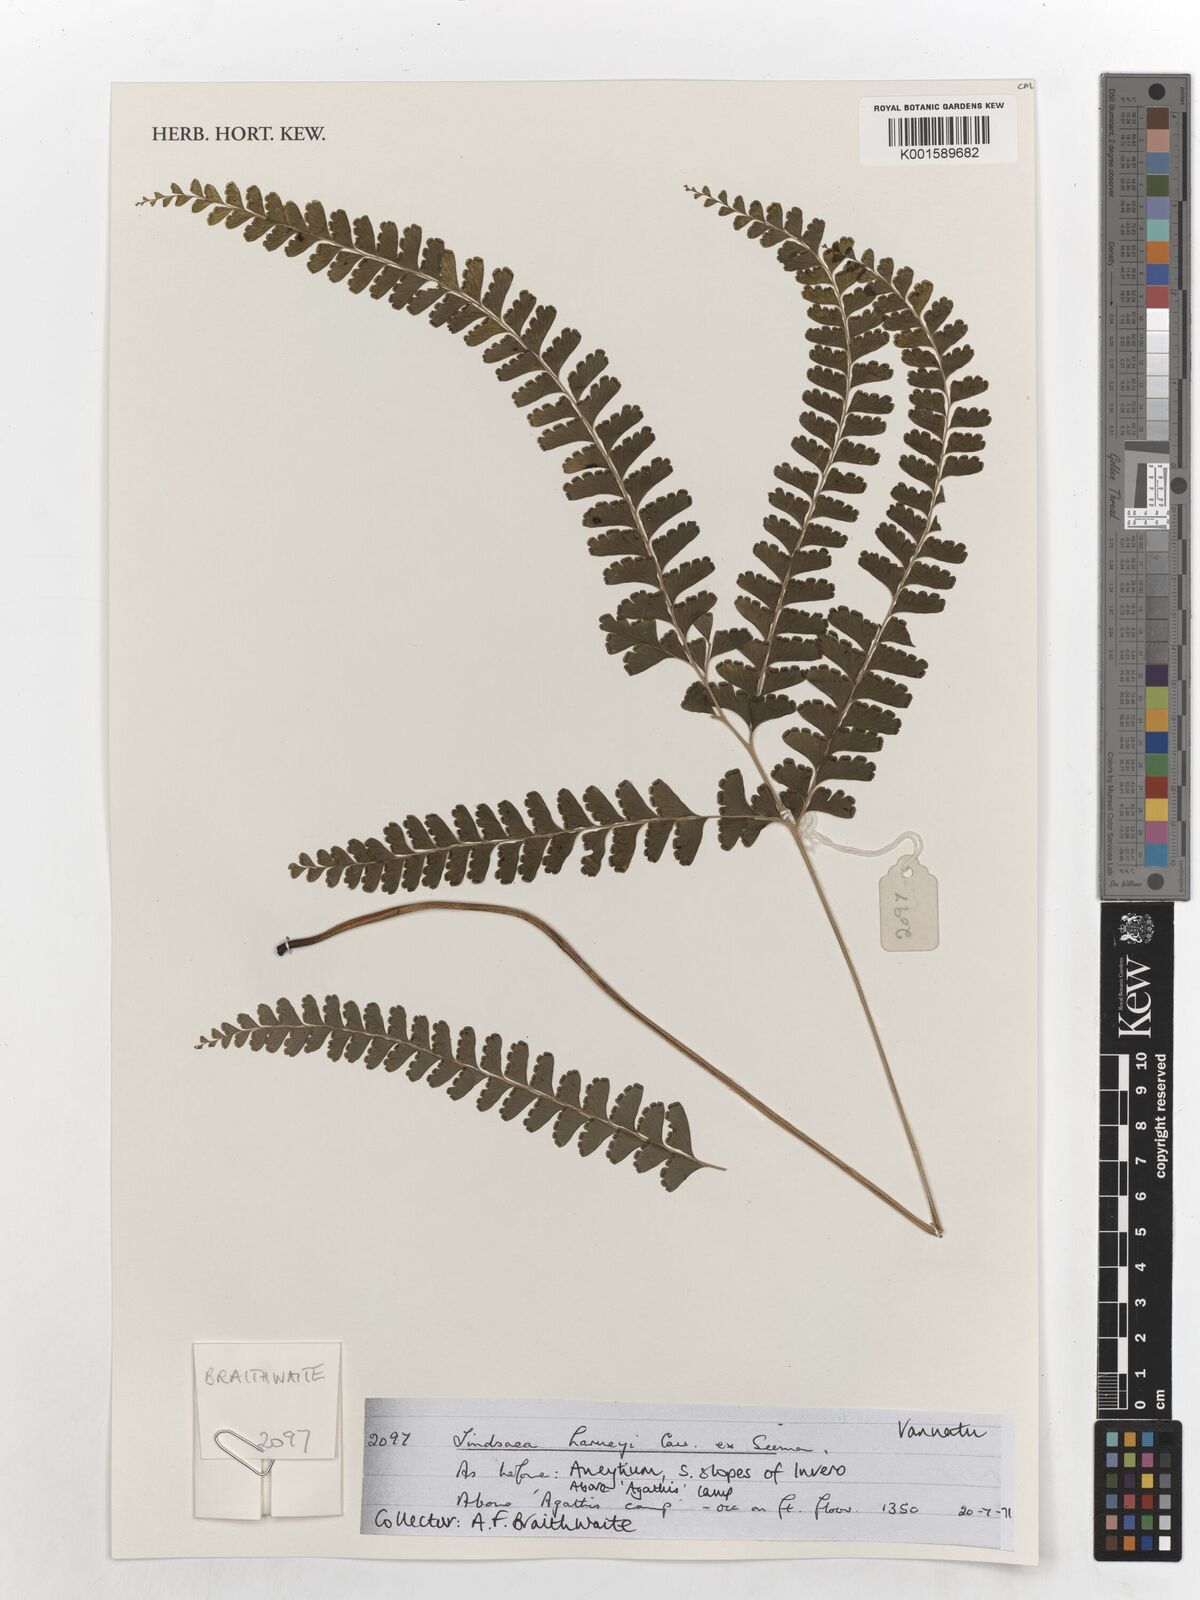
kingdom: Plantae
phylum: Tracheophyta
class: Polypodiopsida
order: Polypodiales
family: Lindsaeaceae
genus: Lindsaea
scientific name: Lindsaea harveyi
